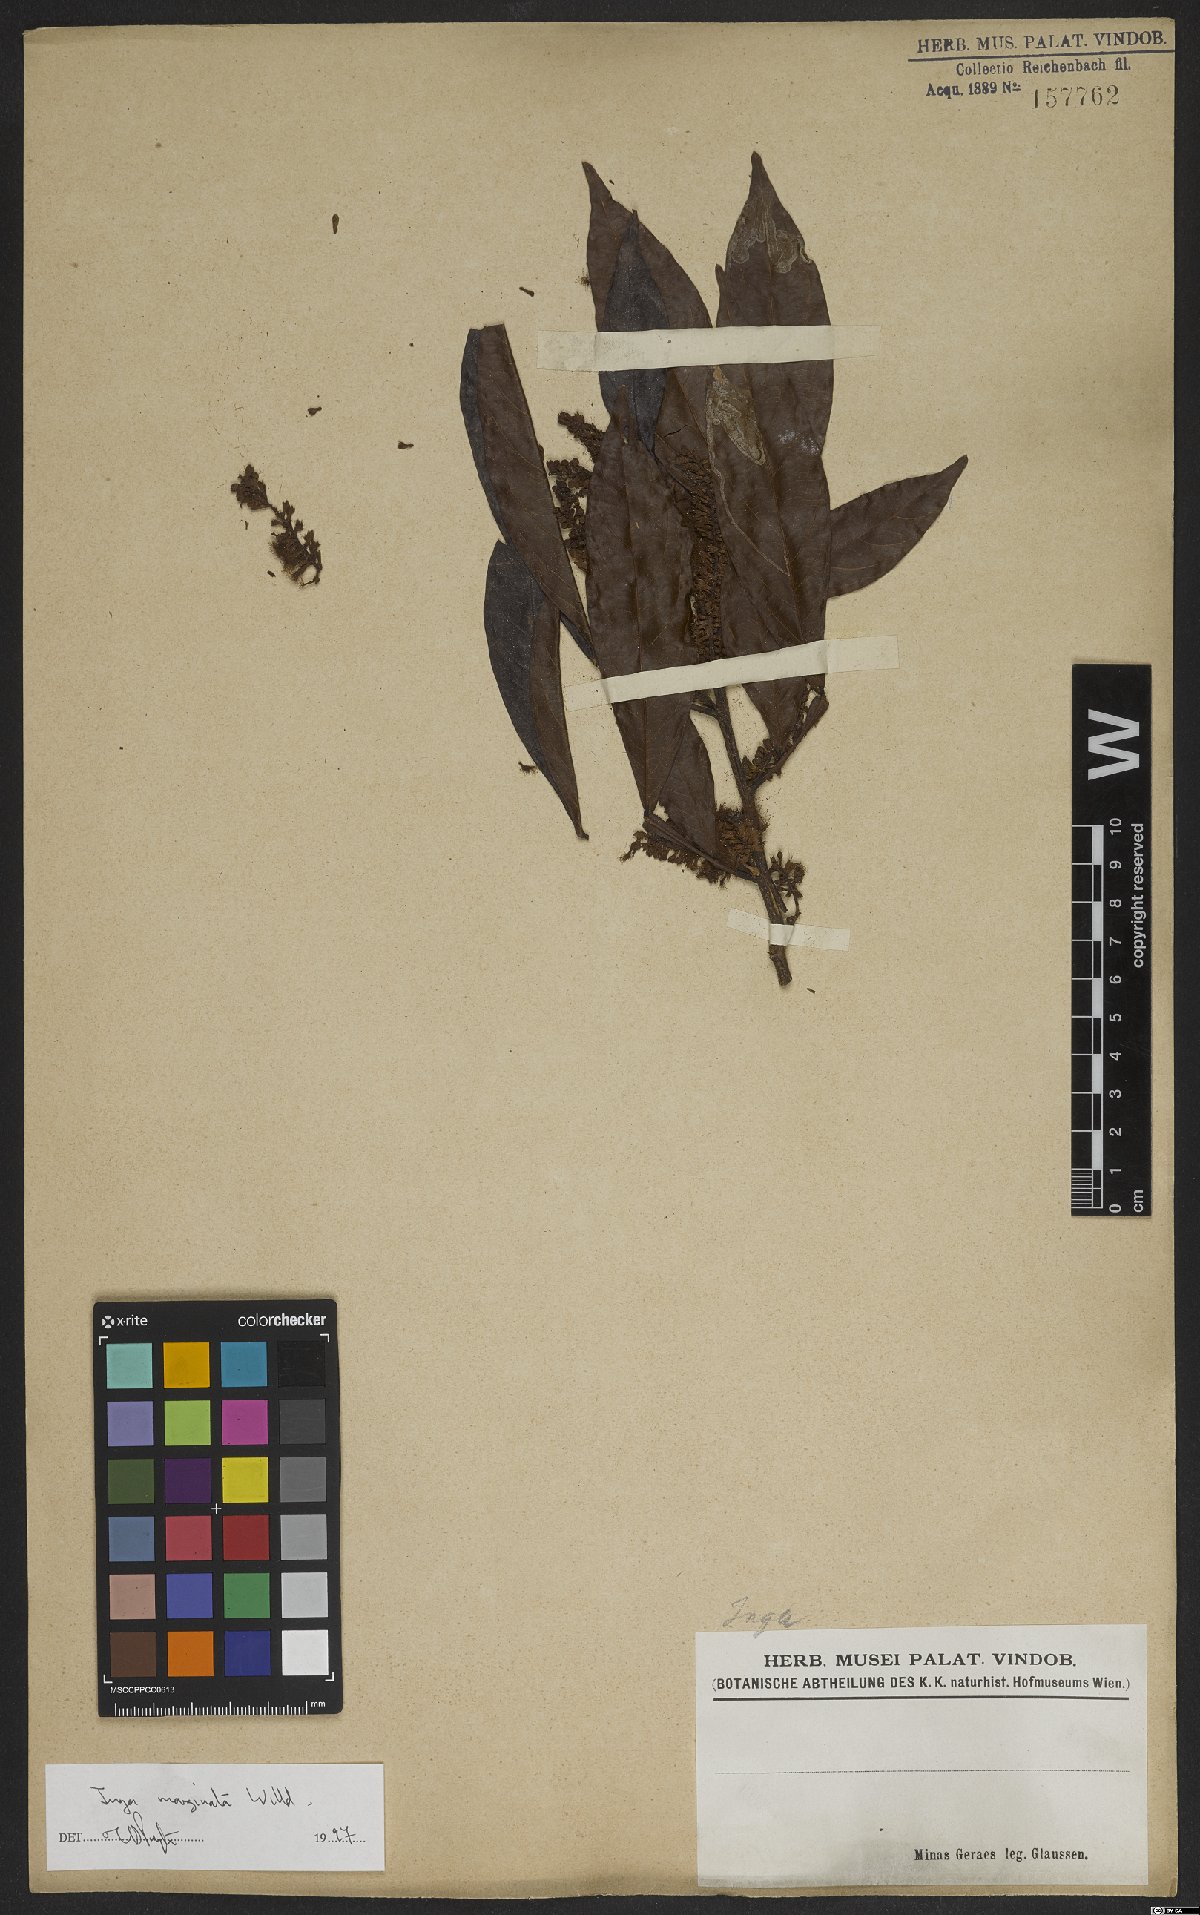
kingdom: Plantae
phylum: Tracheophyta
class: Magnoliopsida
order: Fabales
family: Fabaceae
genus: Inga
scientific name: Inga marginata
